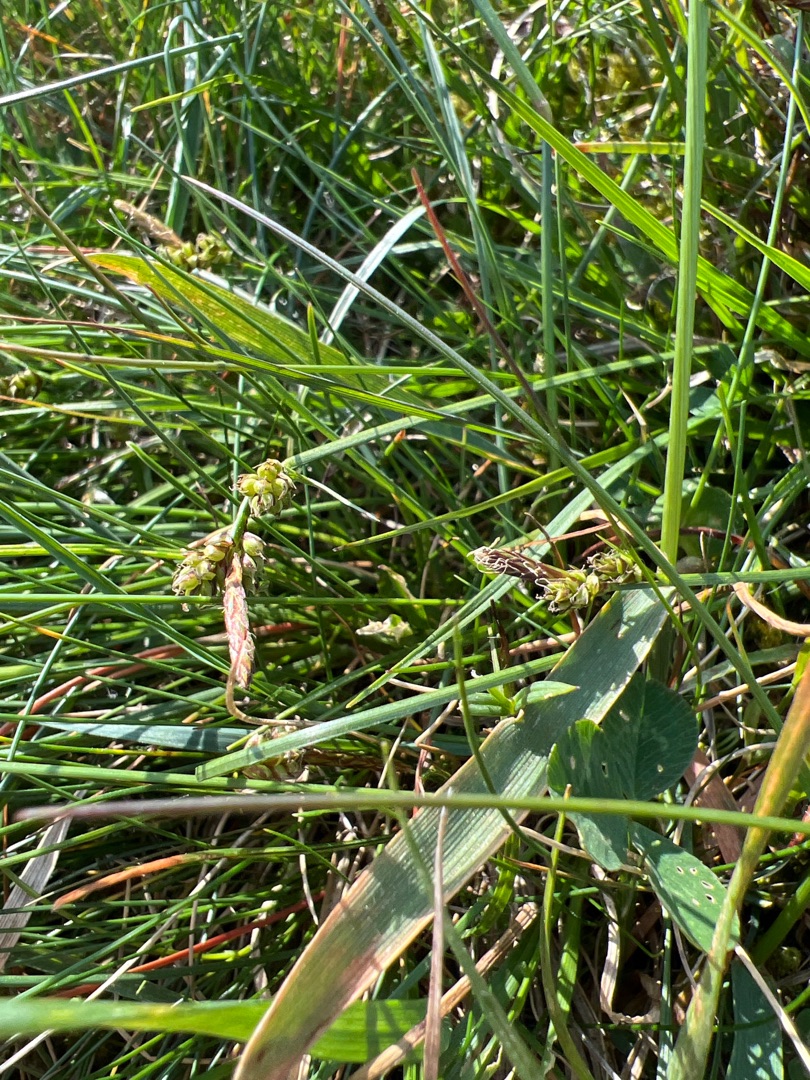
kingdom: Plantae
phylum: Tracheophyta
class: Liliopsida
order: Poales
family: Cyperaceae
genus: Carex
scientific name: Carex pilulifera
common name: Pille-star
